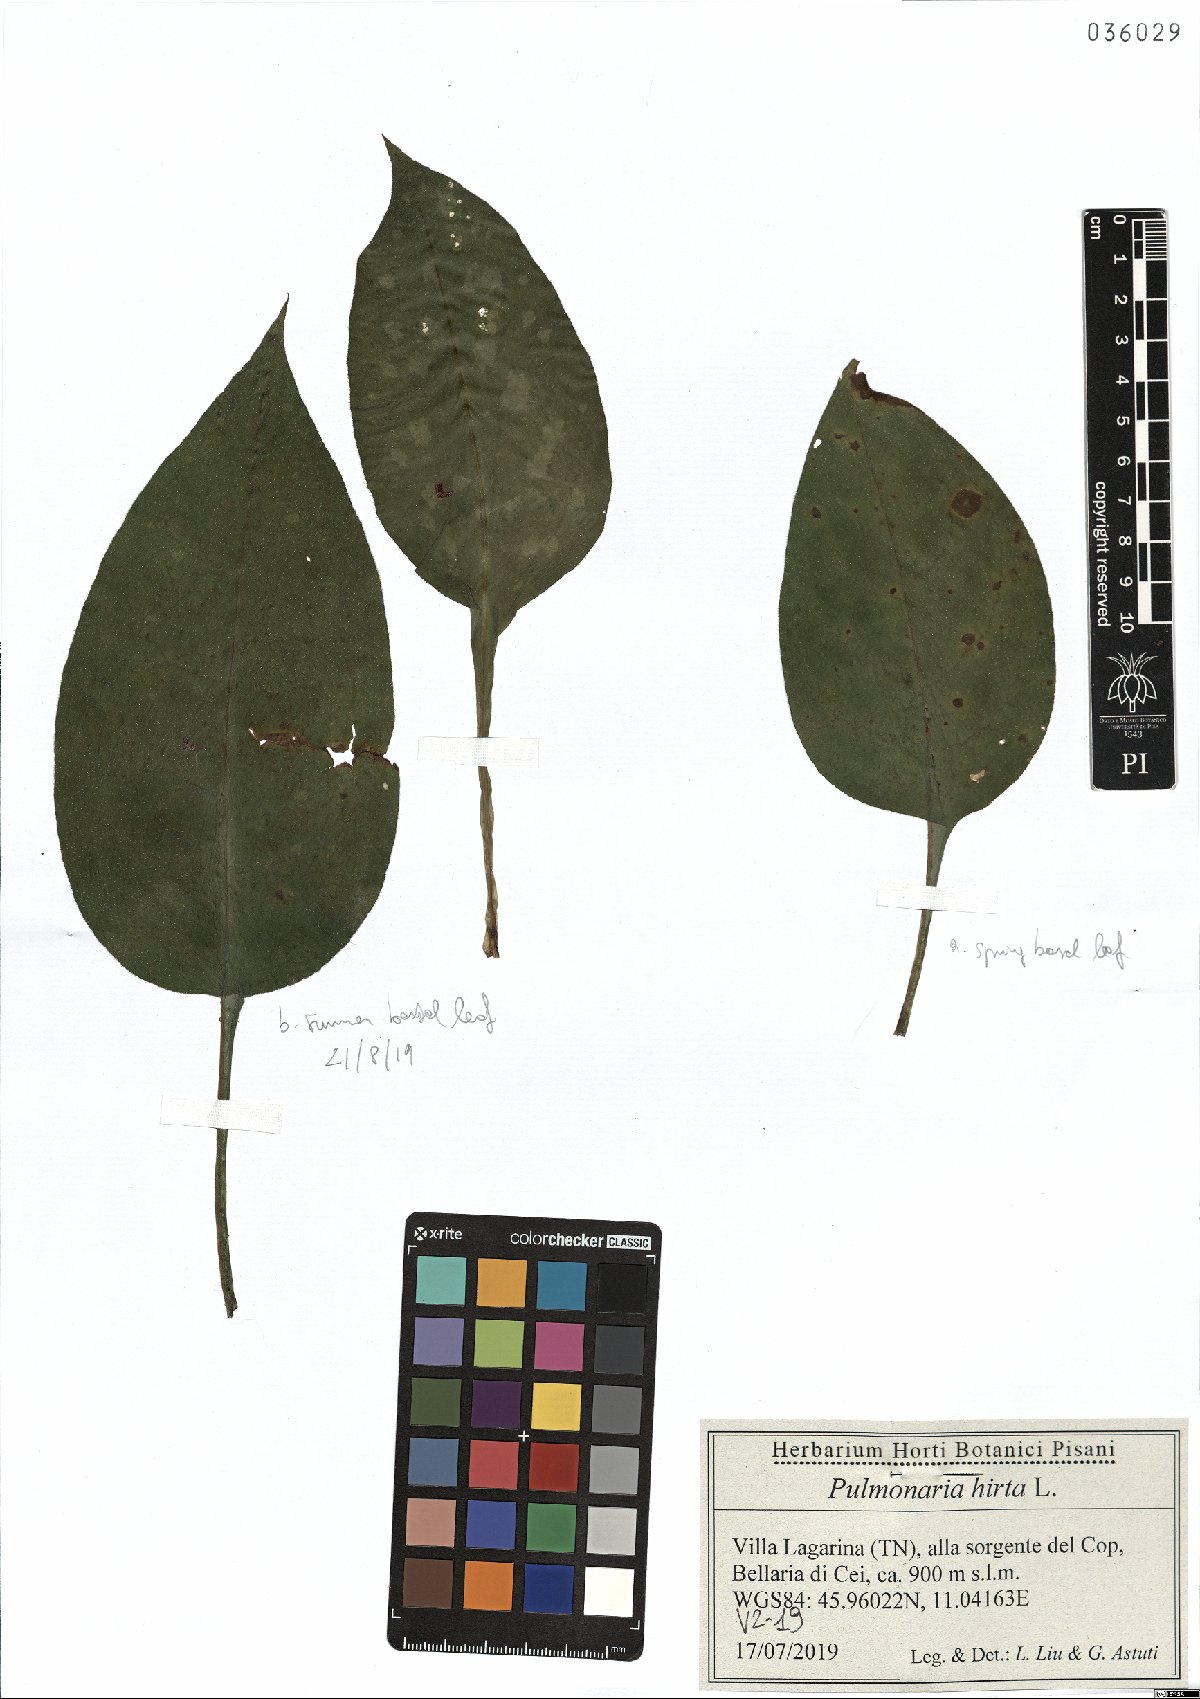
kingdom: Plantae
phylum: Tracheophyta
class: Magnoliopsida
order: Boraginales
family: Boraginaceae
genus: Pulmonaria
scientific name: Pulmonaria hirta
